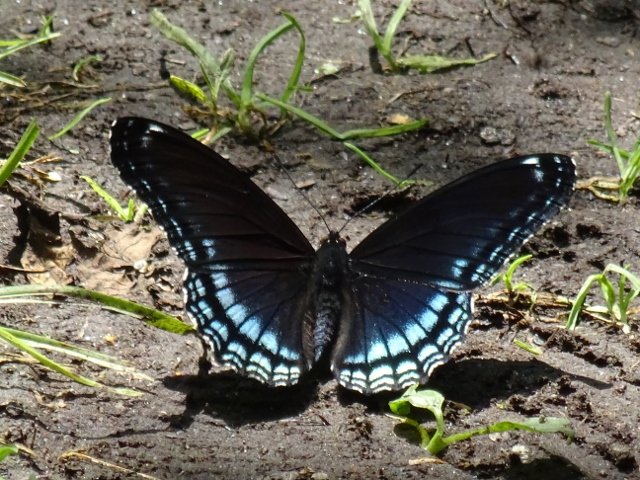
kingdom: Animalia
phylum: Arthropoda
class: Insecta
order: Lepidoptera
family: Nymphalidae
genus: Limenitis
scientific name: Limenitis astyanax
